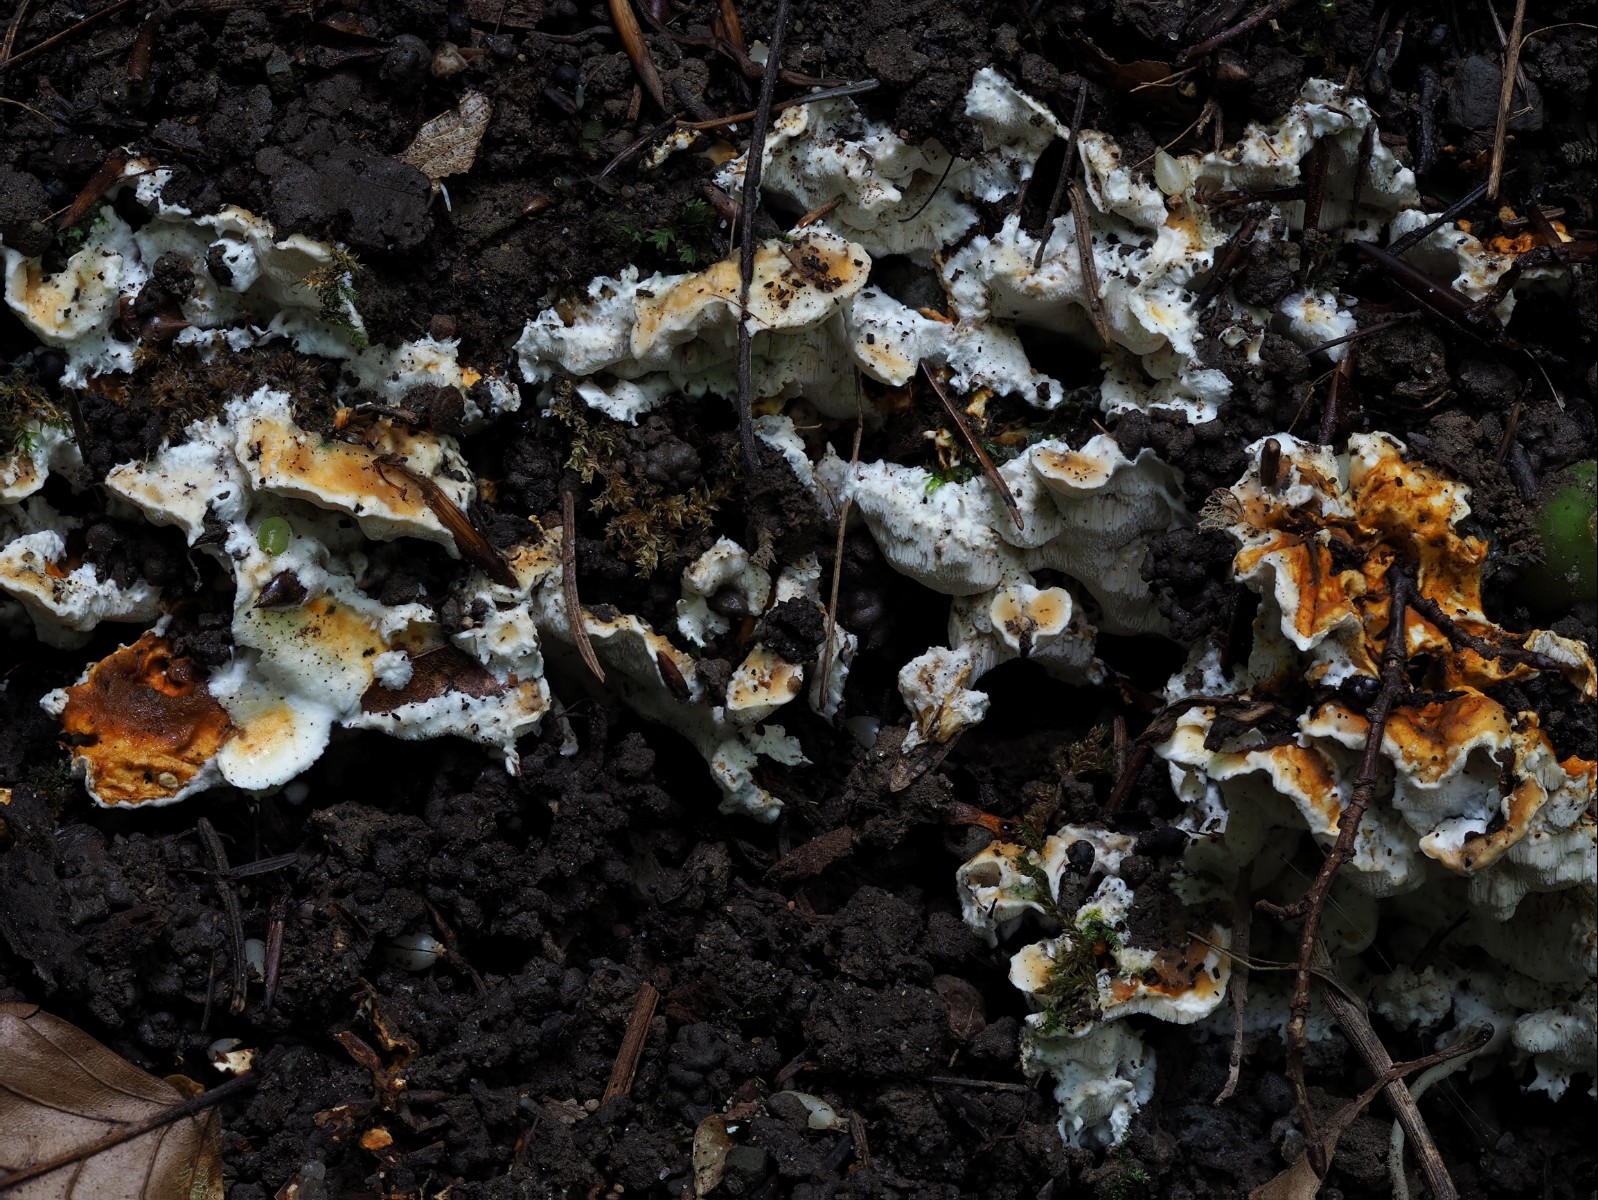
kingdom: Fungi
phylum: Basidiomycota
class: Agaricomycetes
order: Polyporales
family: Steccherinaceae
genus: Loweomyces
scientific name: Loweomyces wynneae
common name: krybende blødporesvamp
